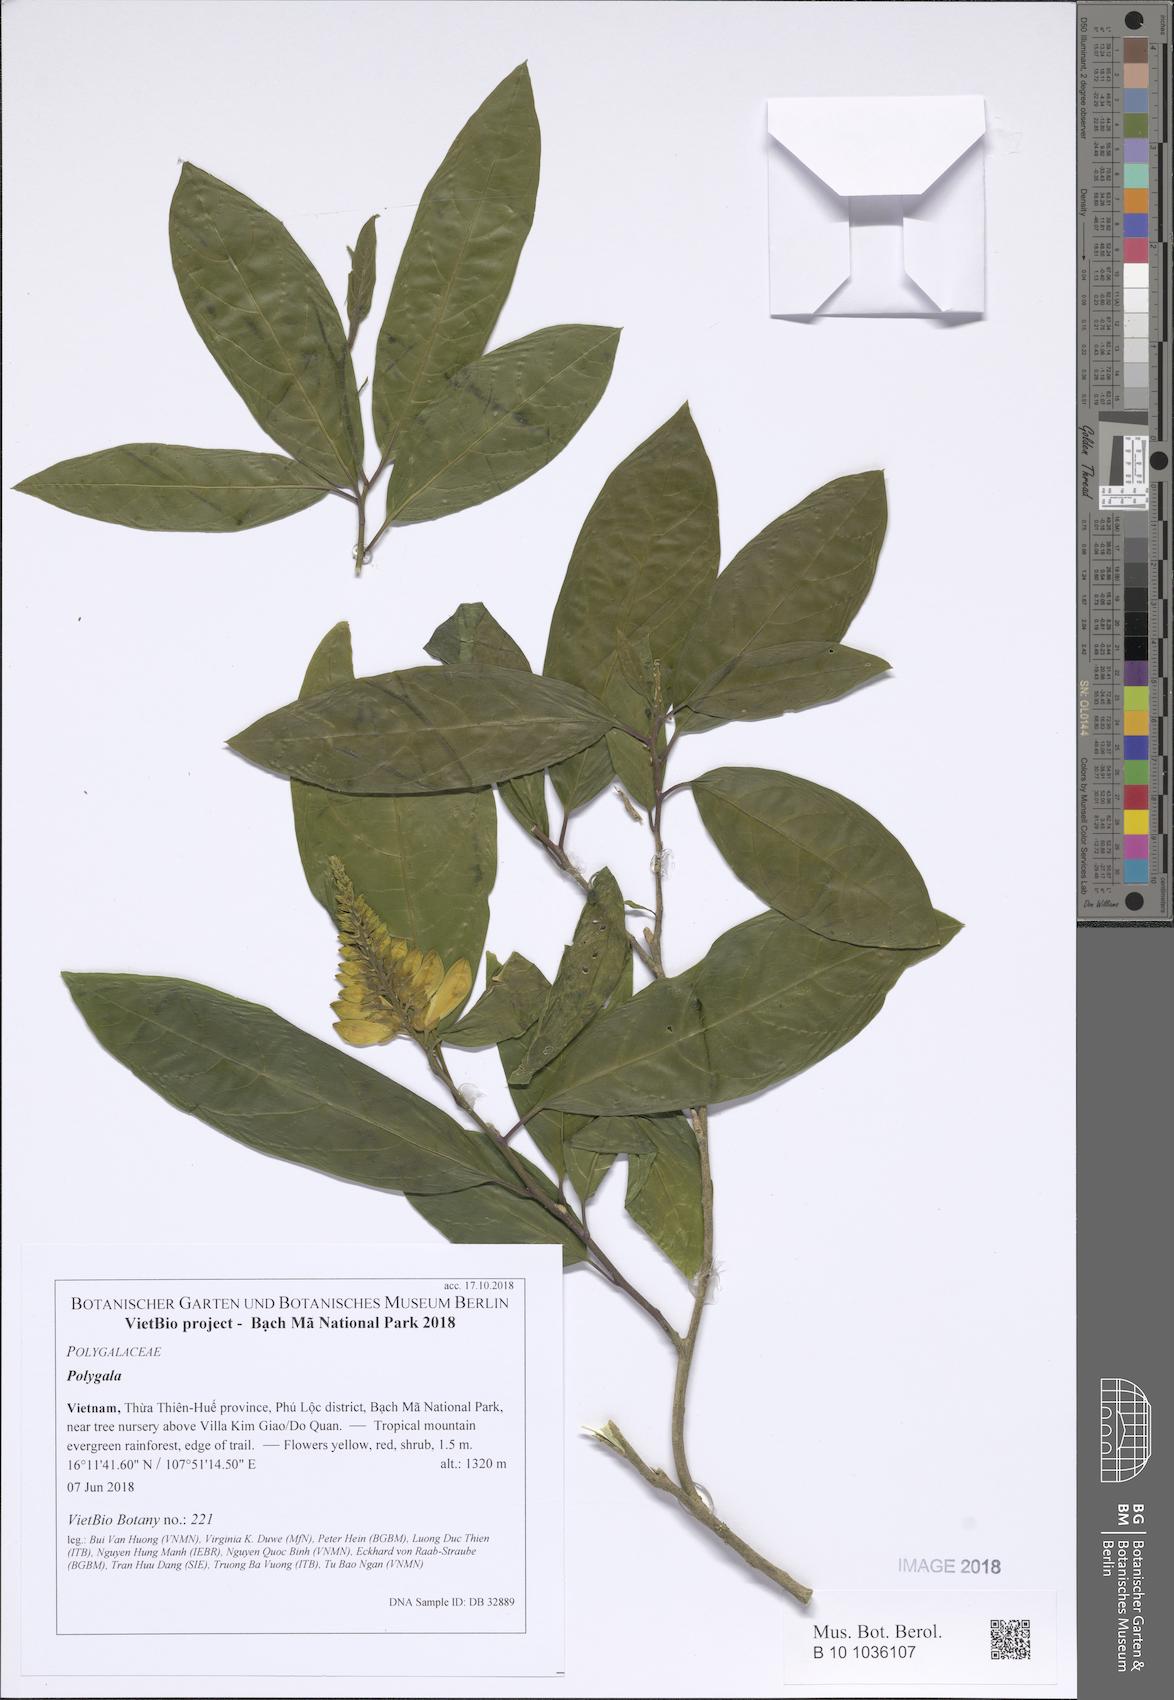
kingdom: Plantae
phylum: Tracheophyta
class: Magnoliopsida
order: Fabales
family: Polygalaceae
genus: Polygala
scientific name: Polygala tonkinensis
